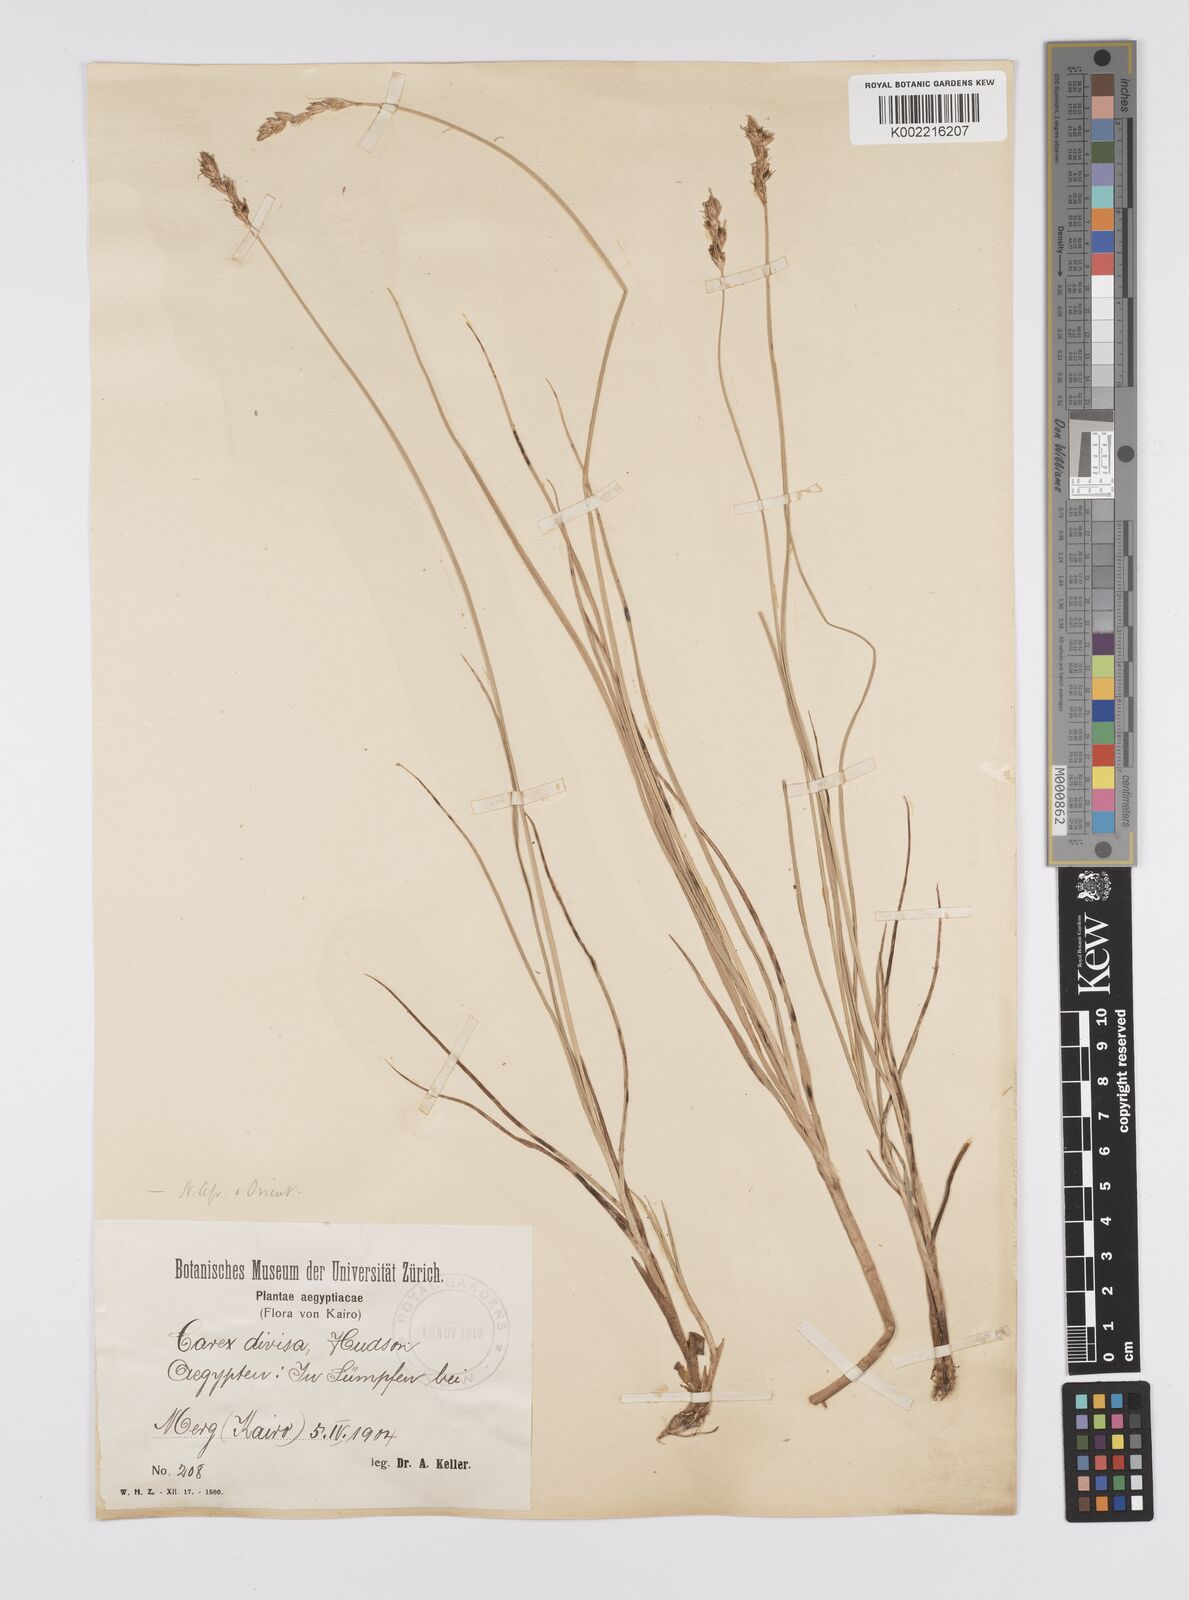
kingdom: Plantae
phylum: Tracheophyta
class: Liliopsida
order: Poales
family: Cyperaceae
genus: Carex
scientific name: Carex divisa
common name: Divided sedge
